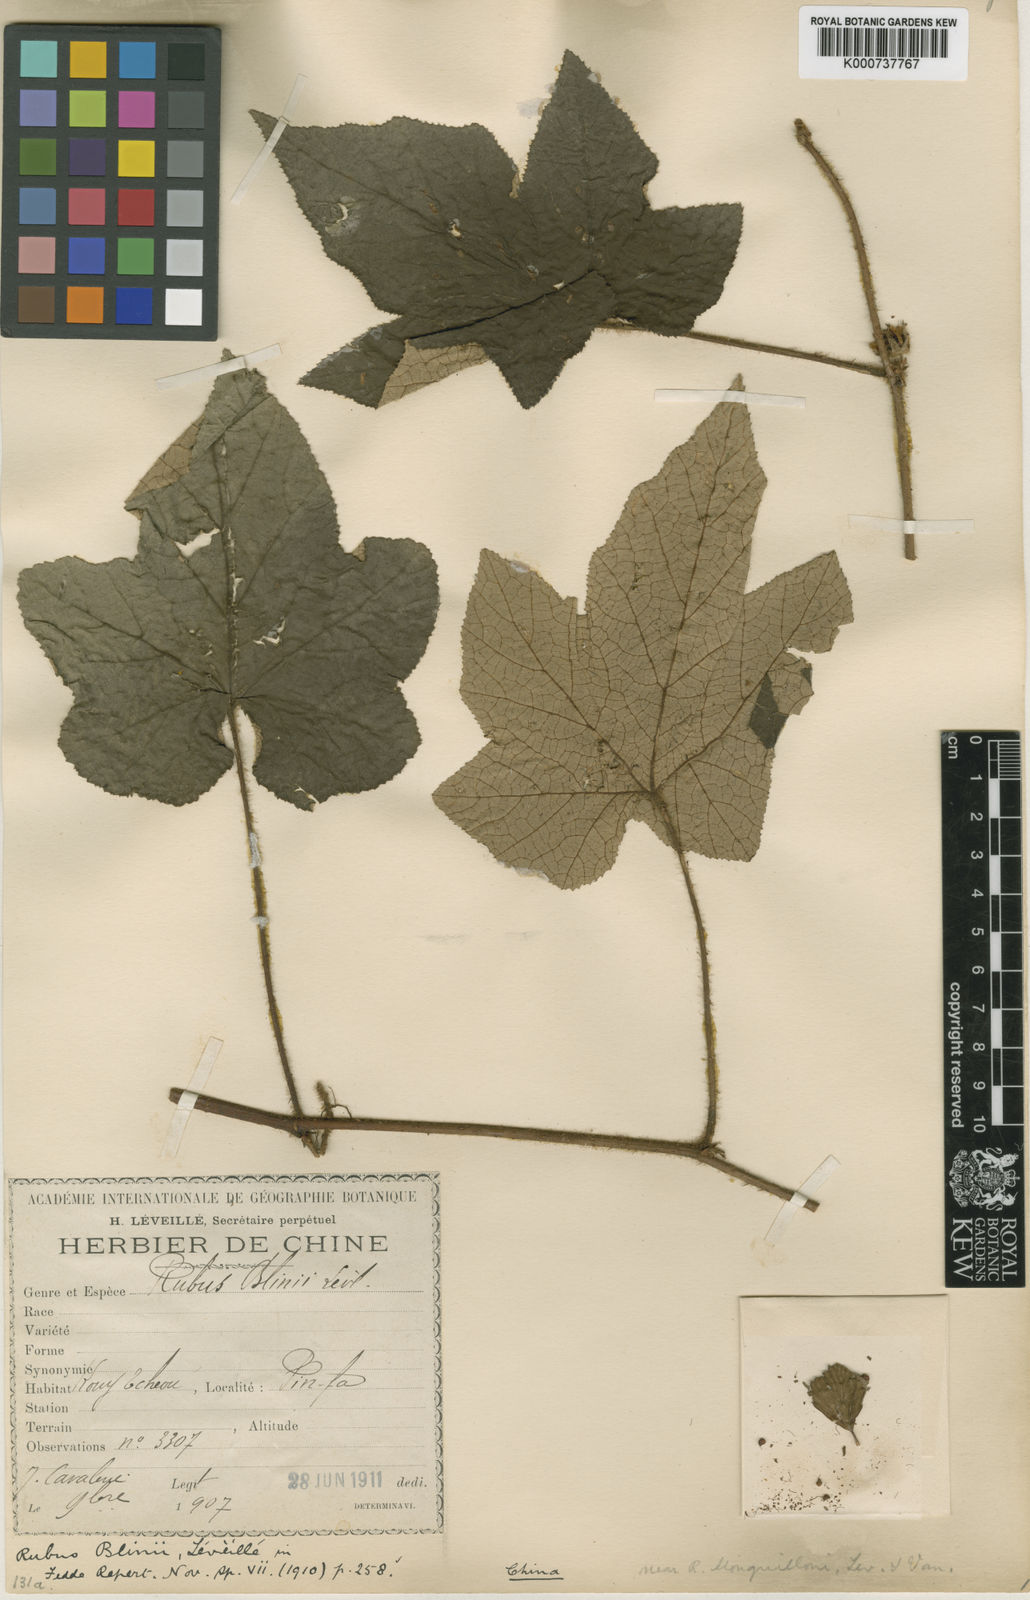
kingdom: Plantae
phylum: Tracheophyta
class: Magnoliopsida
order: Rosales
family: Rosaceae
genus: Rubus
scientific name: Rubus
